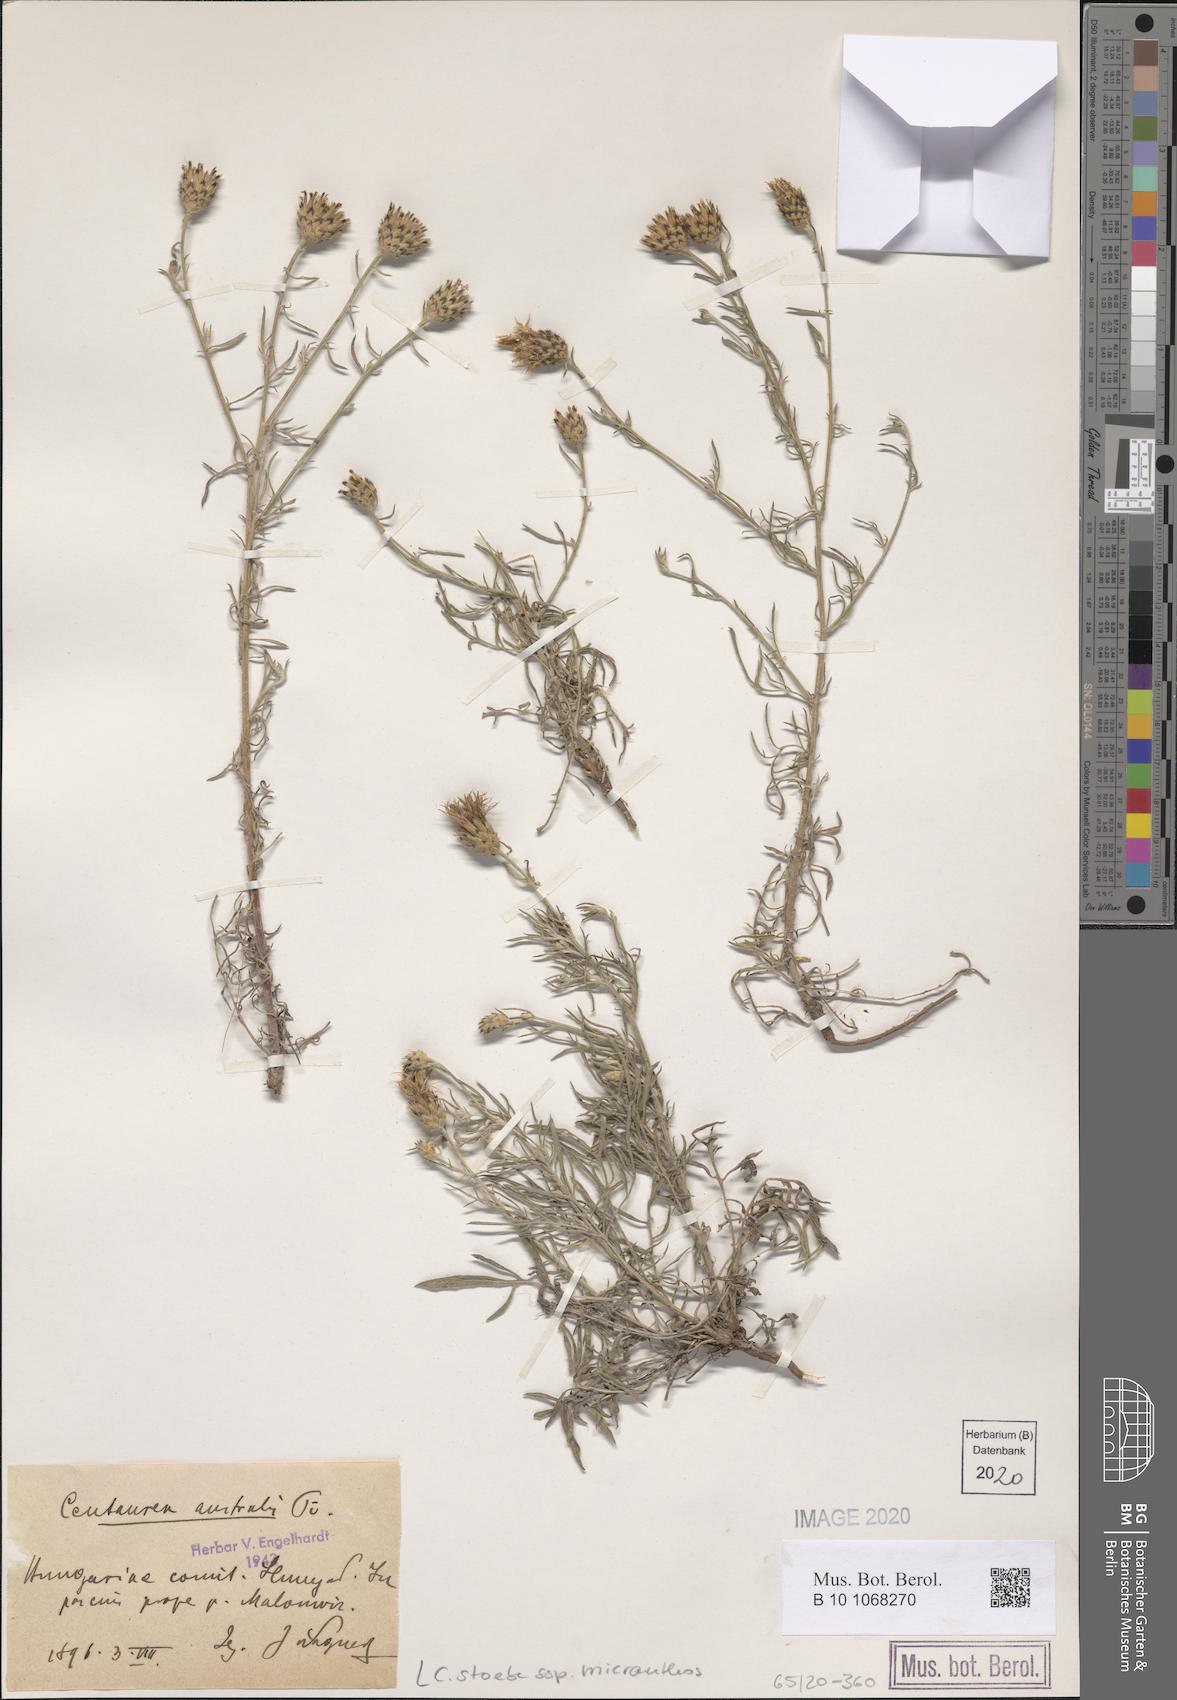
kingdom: Plantae
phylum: Tracheophyta
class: Magnoliopsida
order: Asterales
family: Asteraceae
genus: Centaurea
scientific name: Centaurea australis
